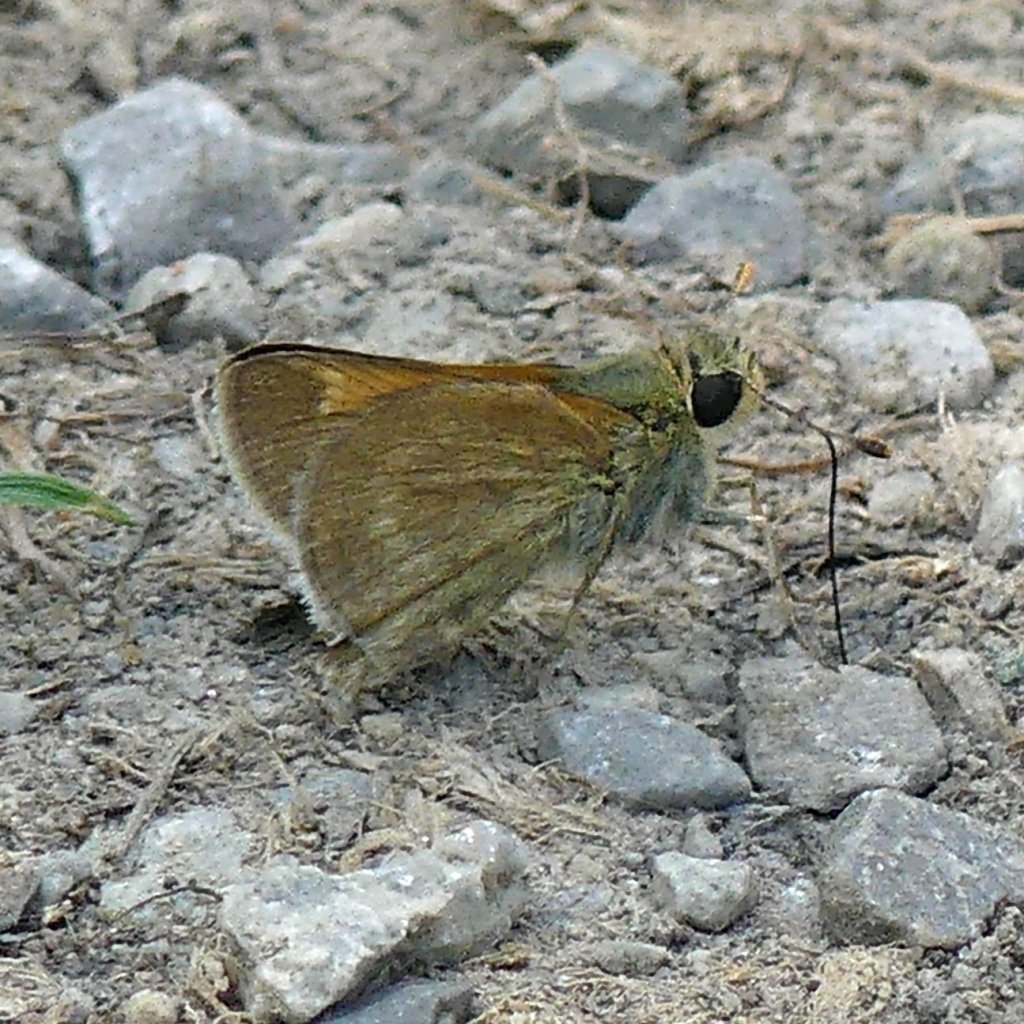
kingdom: Animalia
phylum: Arthropoda
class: Insecta
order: Lepidoptera
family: Hesperiidae
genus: Polites
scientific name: Polites themistocles
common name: Tawny-edged Skipper
